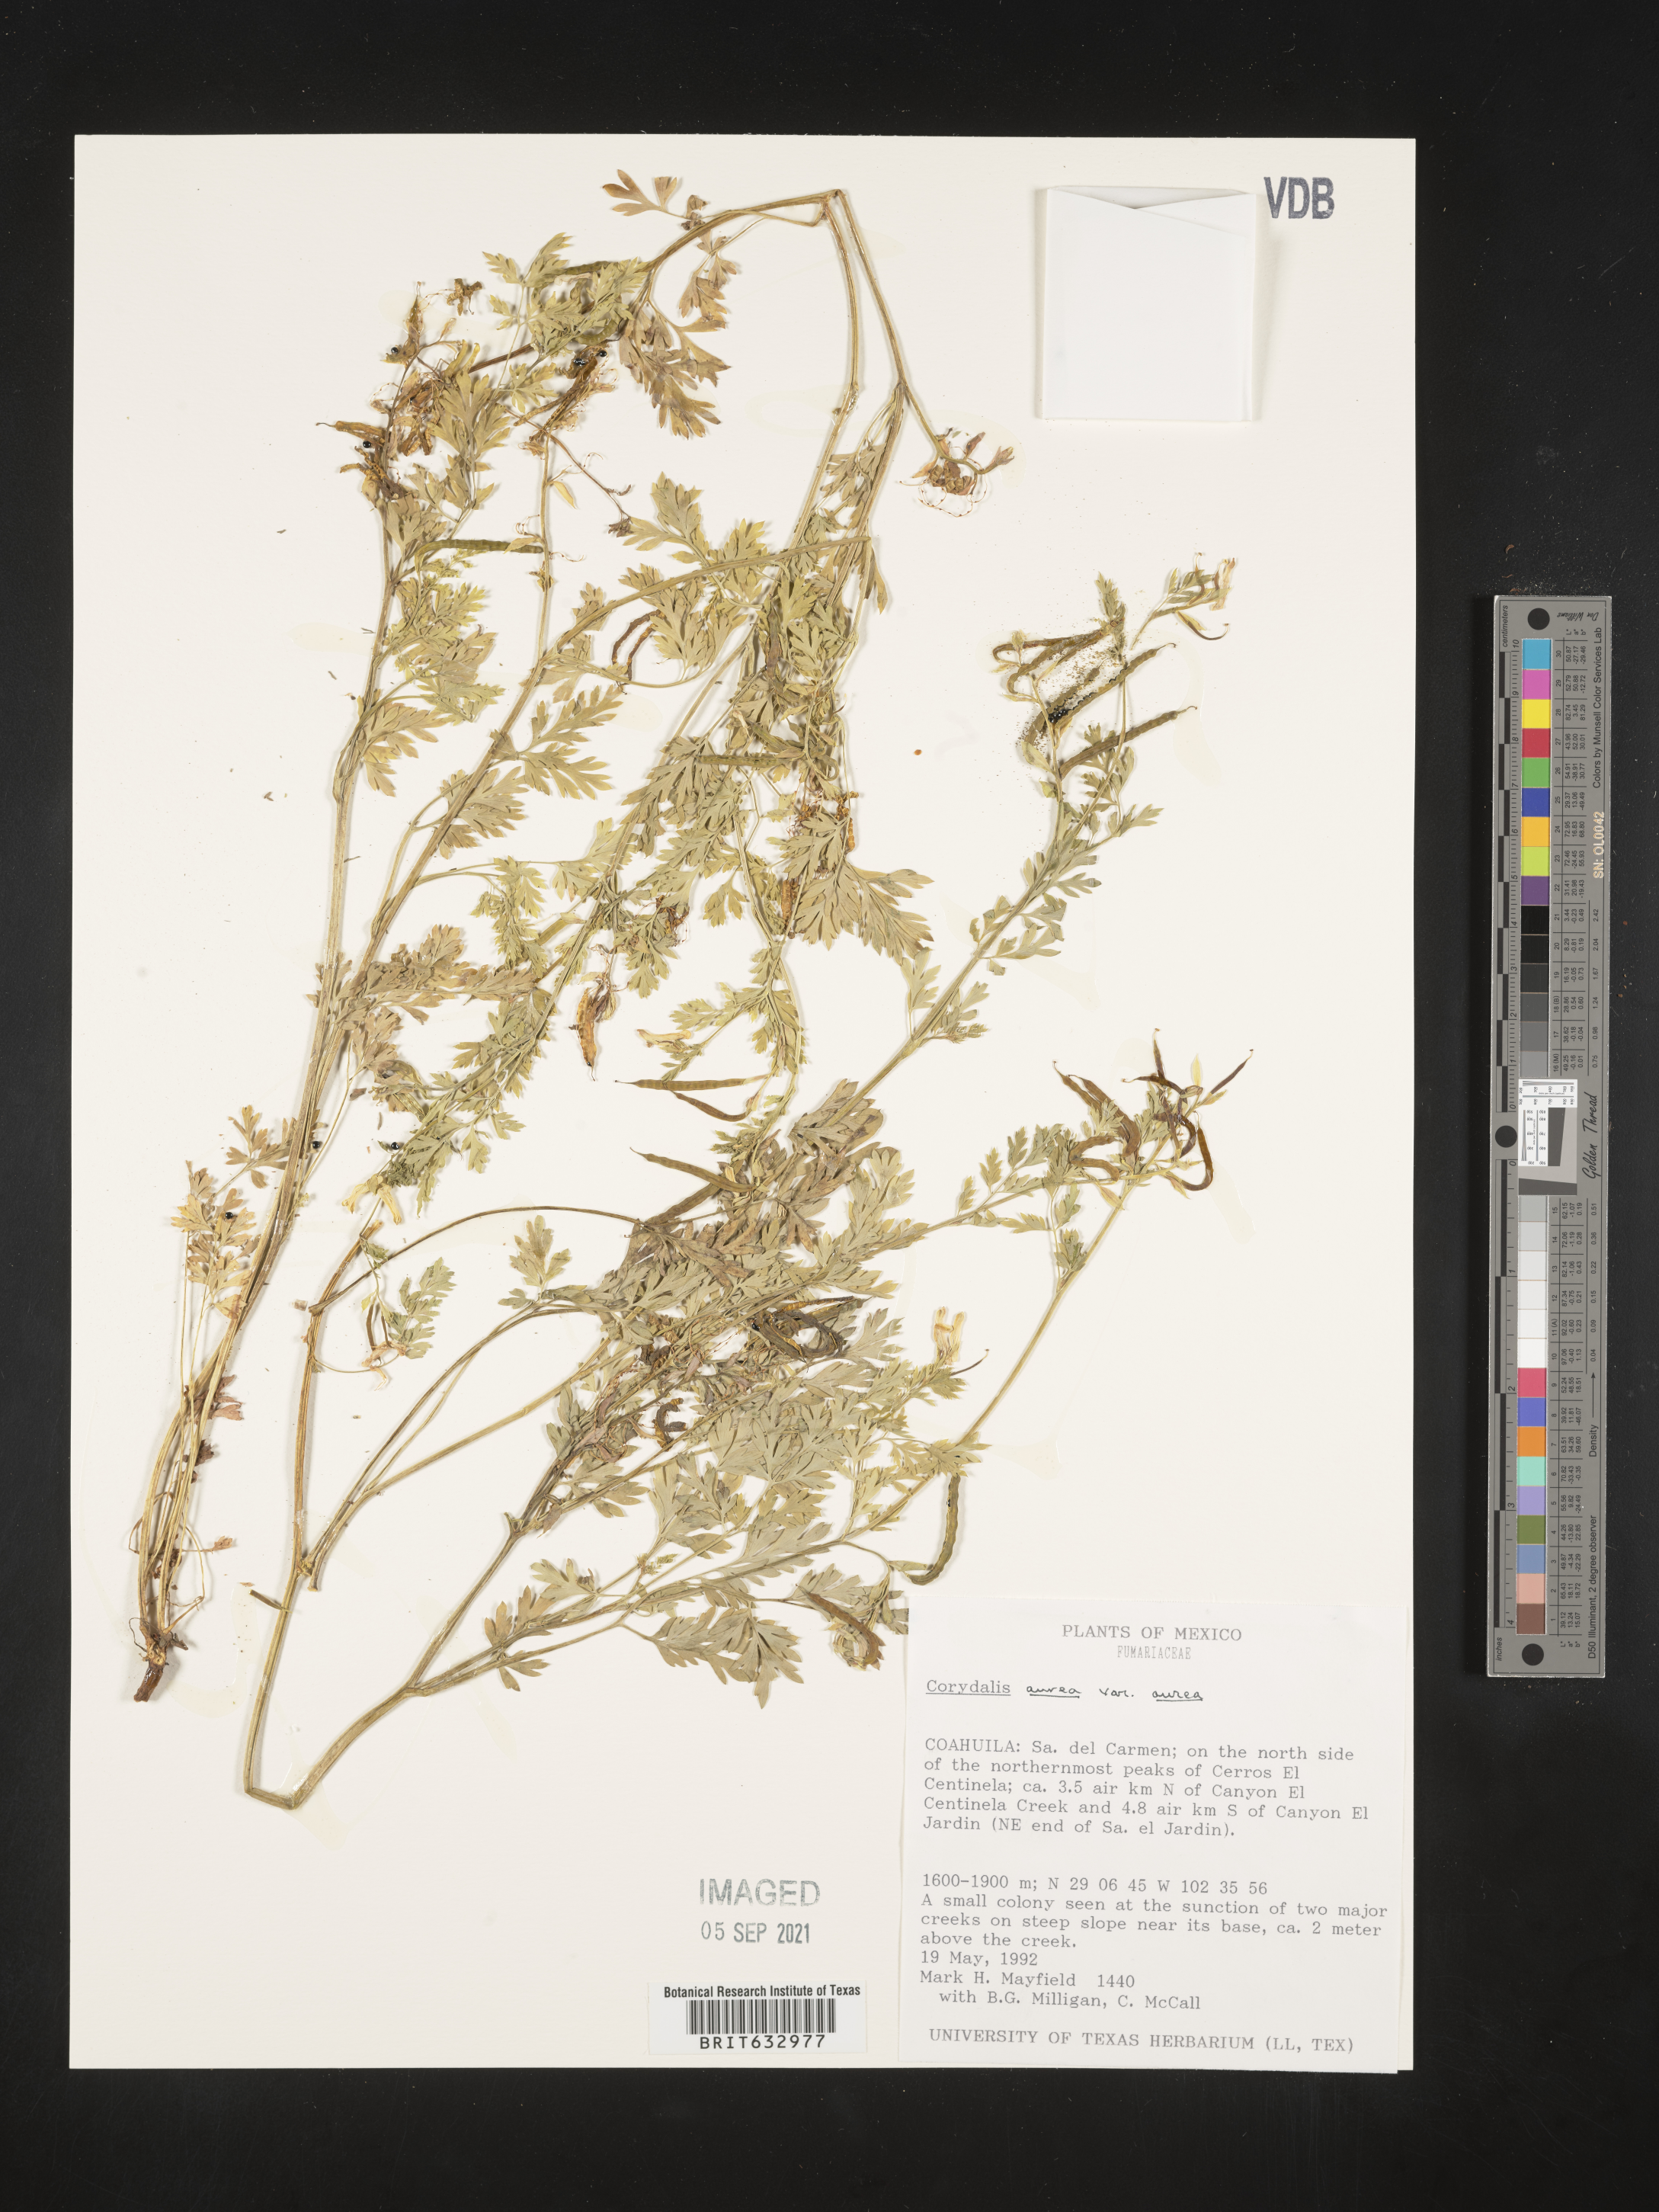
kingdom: Plantae
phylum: Tracheophyta
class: Magnoliopsida
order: Ranunculales
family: Papaveraceae
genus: Corydalis
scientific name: Corydalis
